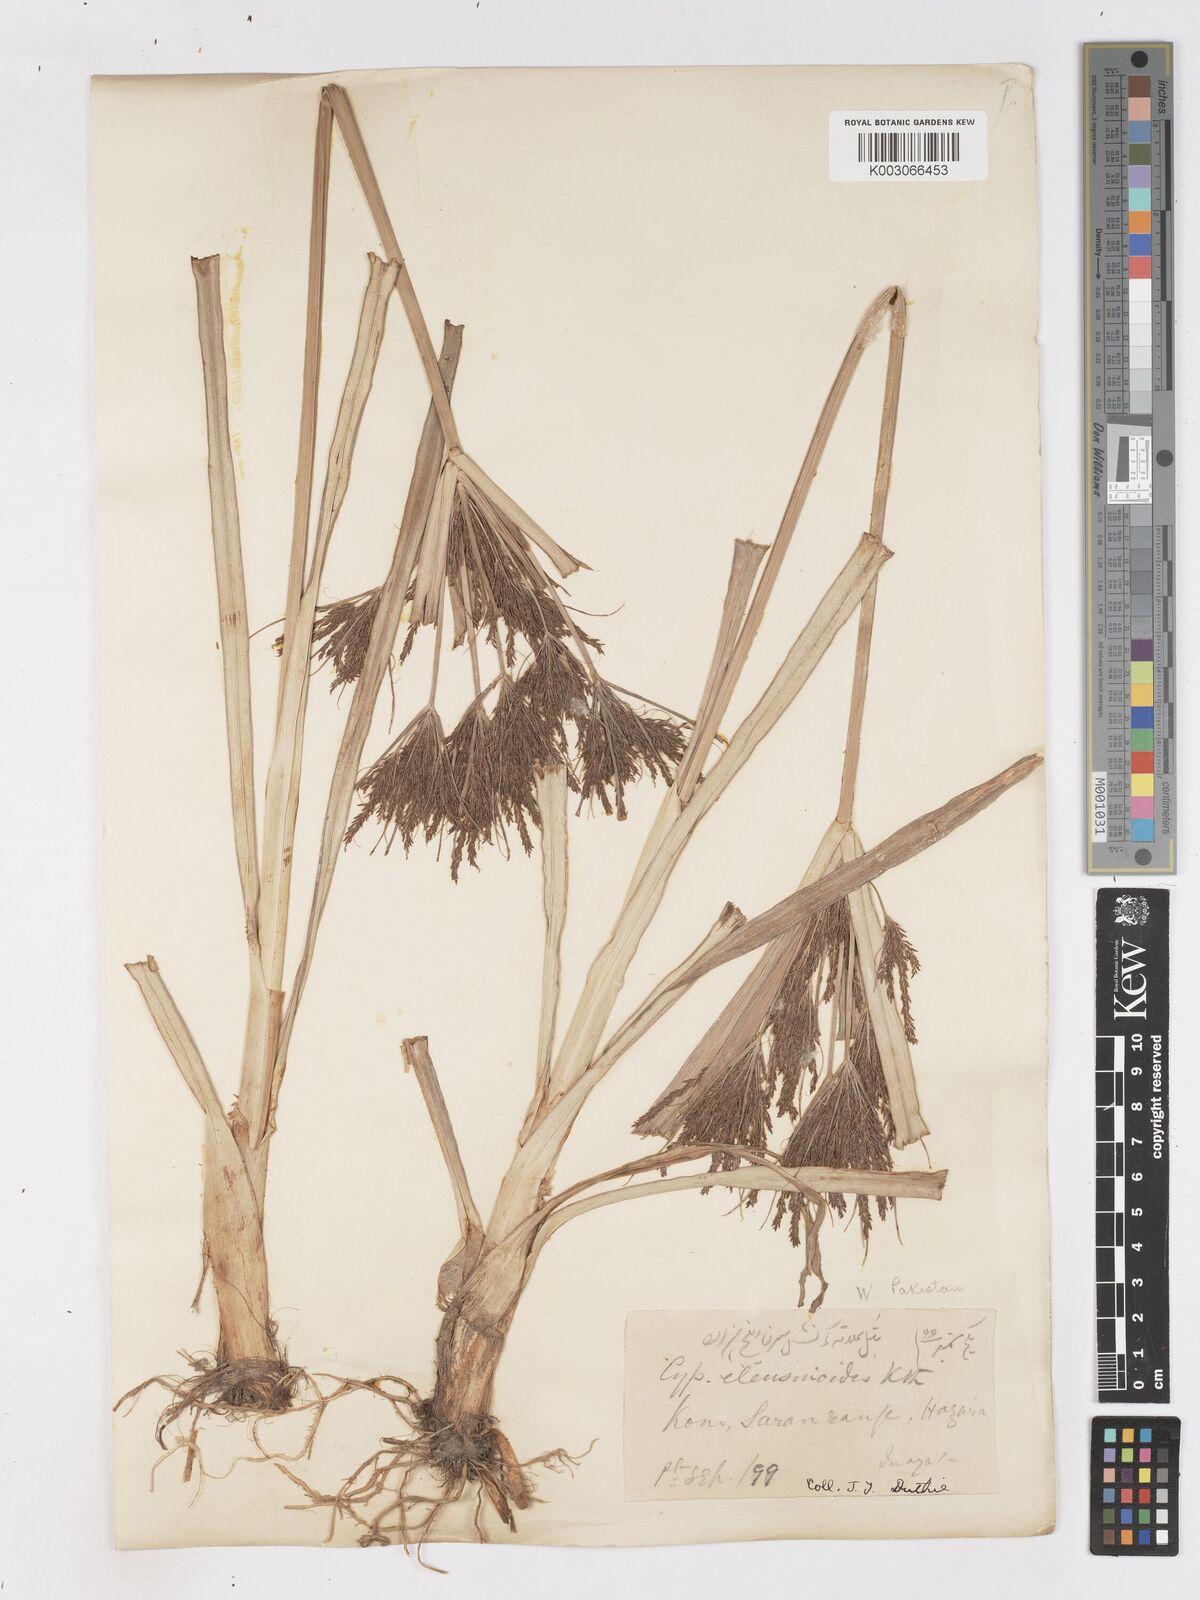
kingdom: Plantae
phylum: Tracheophyta
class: Liliopsida
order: Poales
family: Cyperaceae
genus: Cyperus
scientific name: Cyperus nutans
